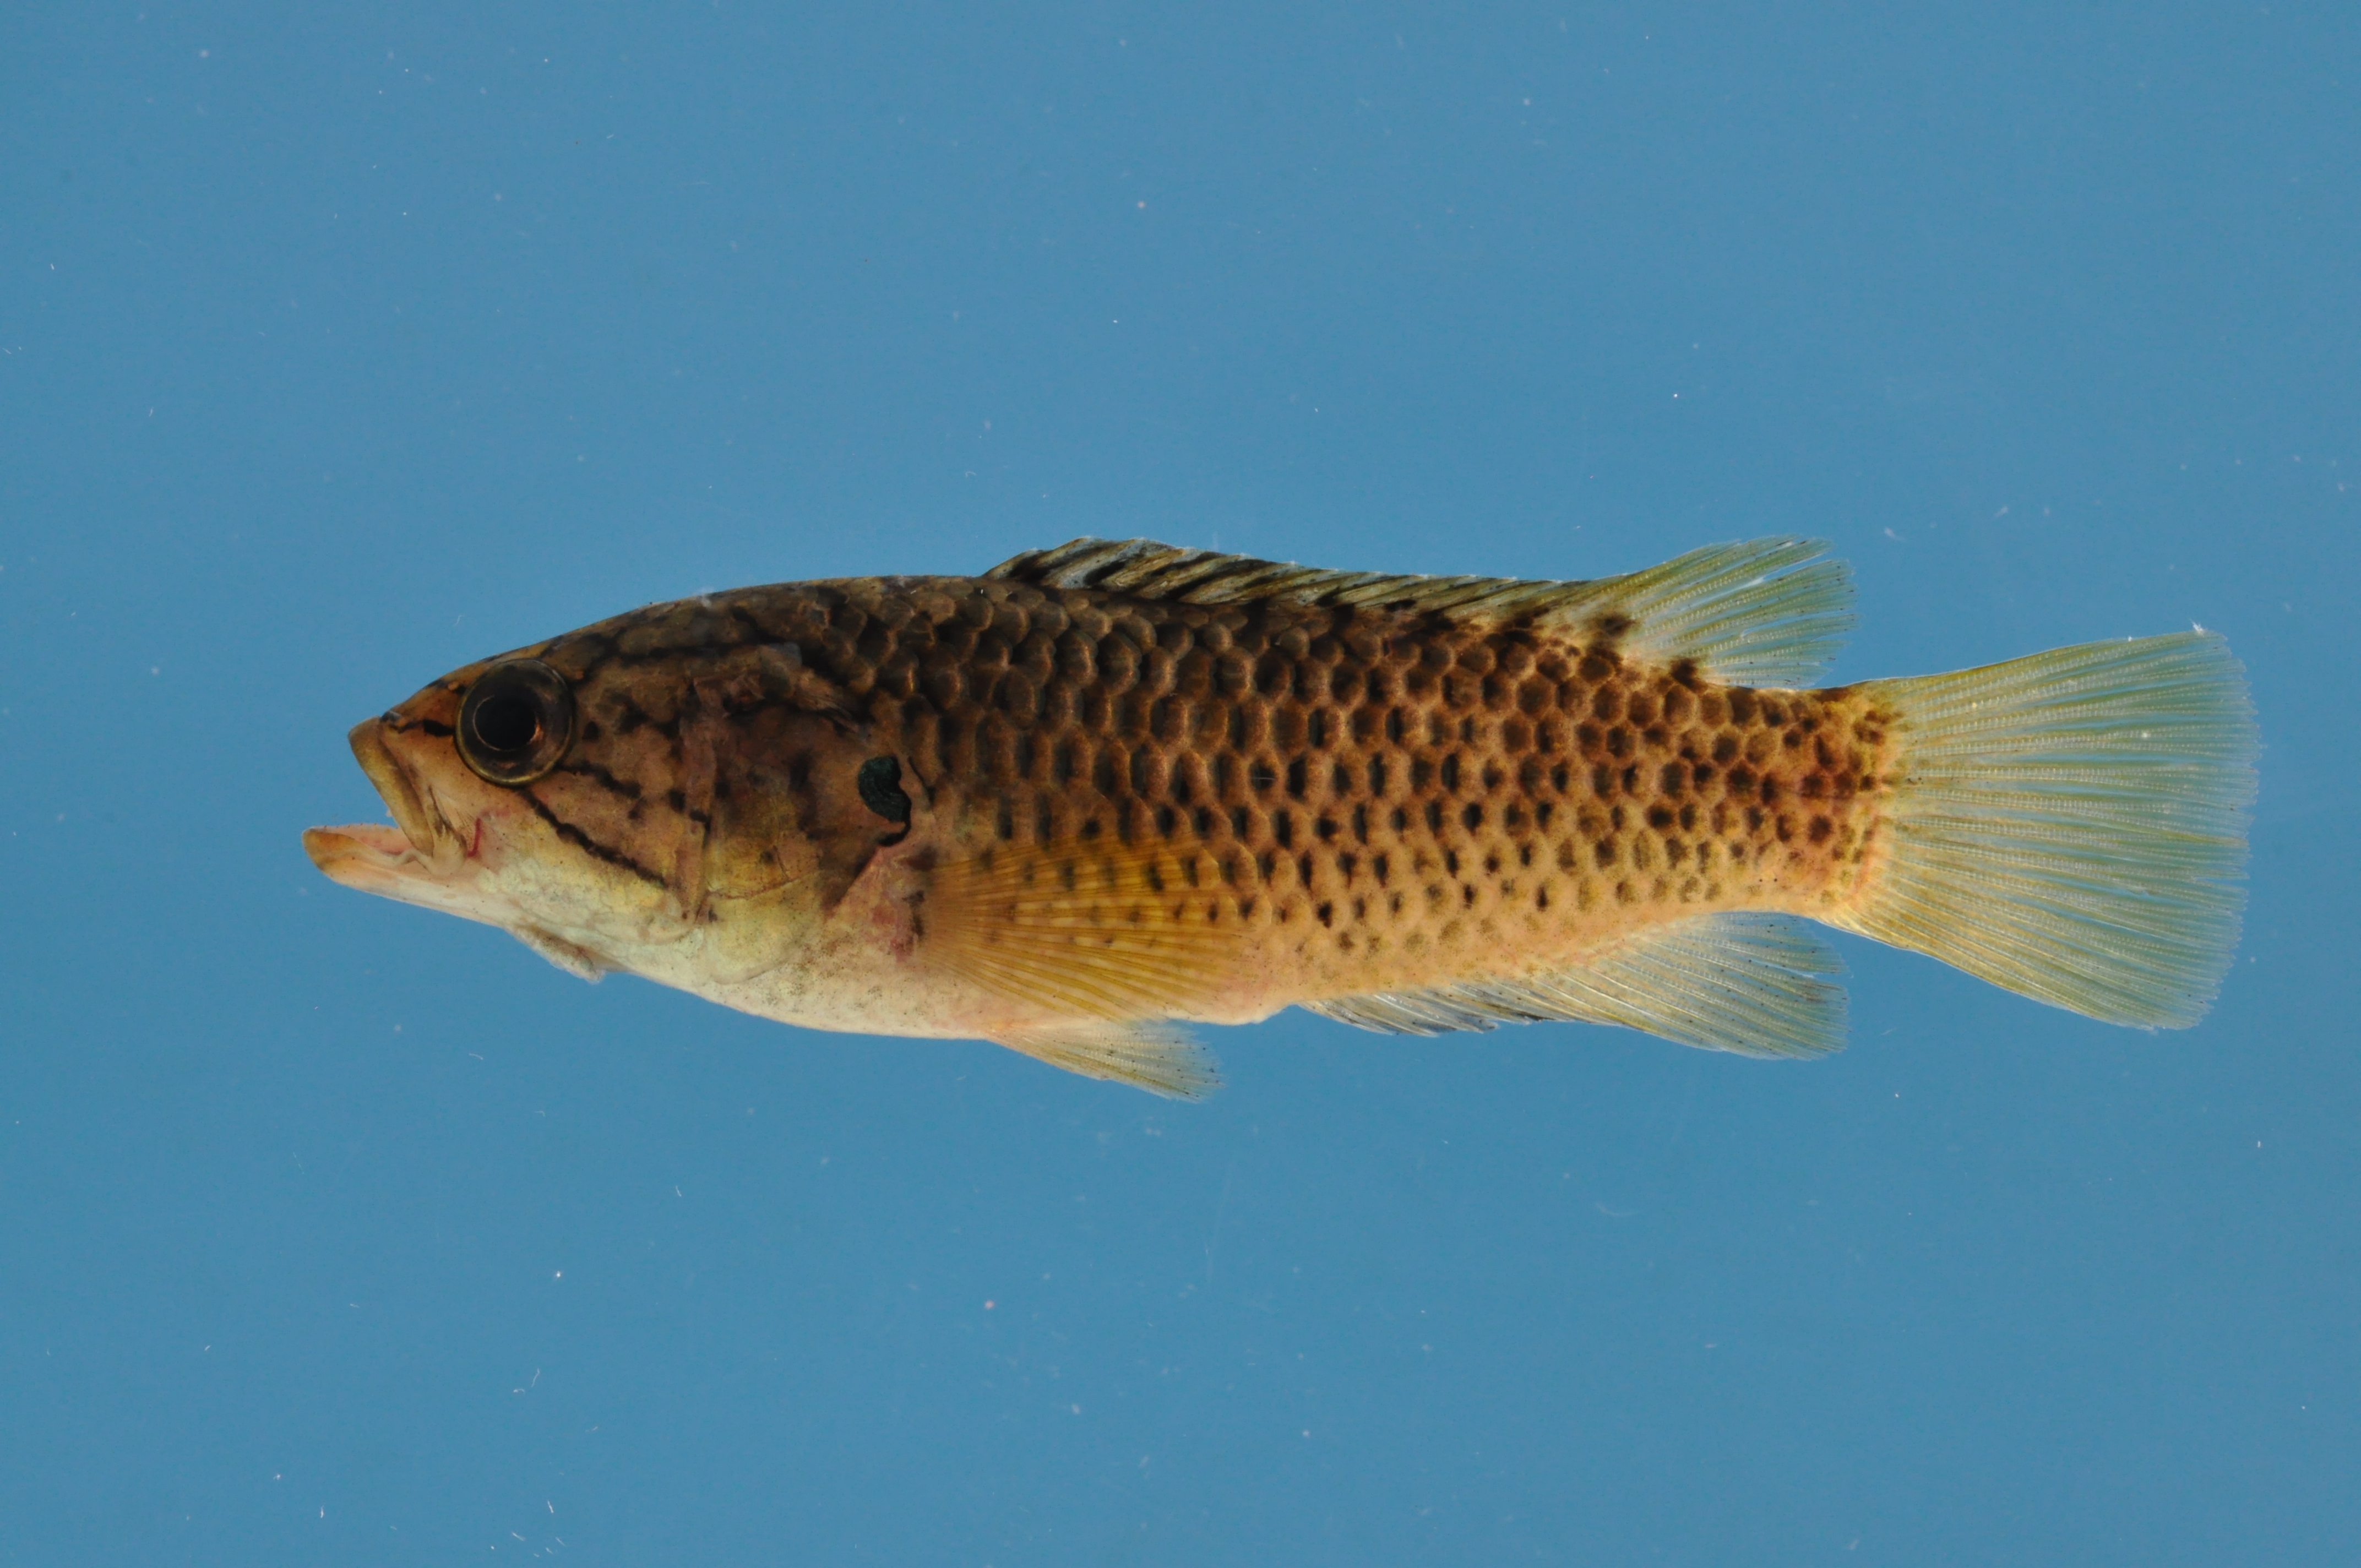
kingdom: Animalia
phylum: Chordata
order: Perciformes
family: Anabantidae
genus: Sandelia
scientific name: Sandelia capensis
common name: Cape kurper
